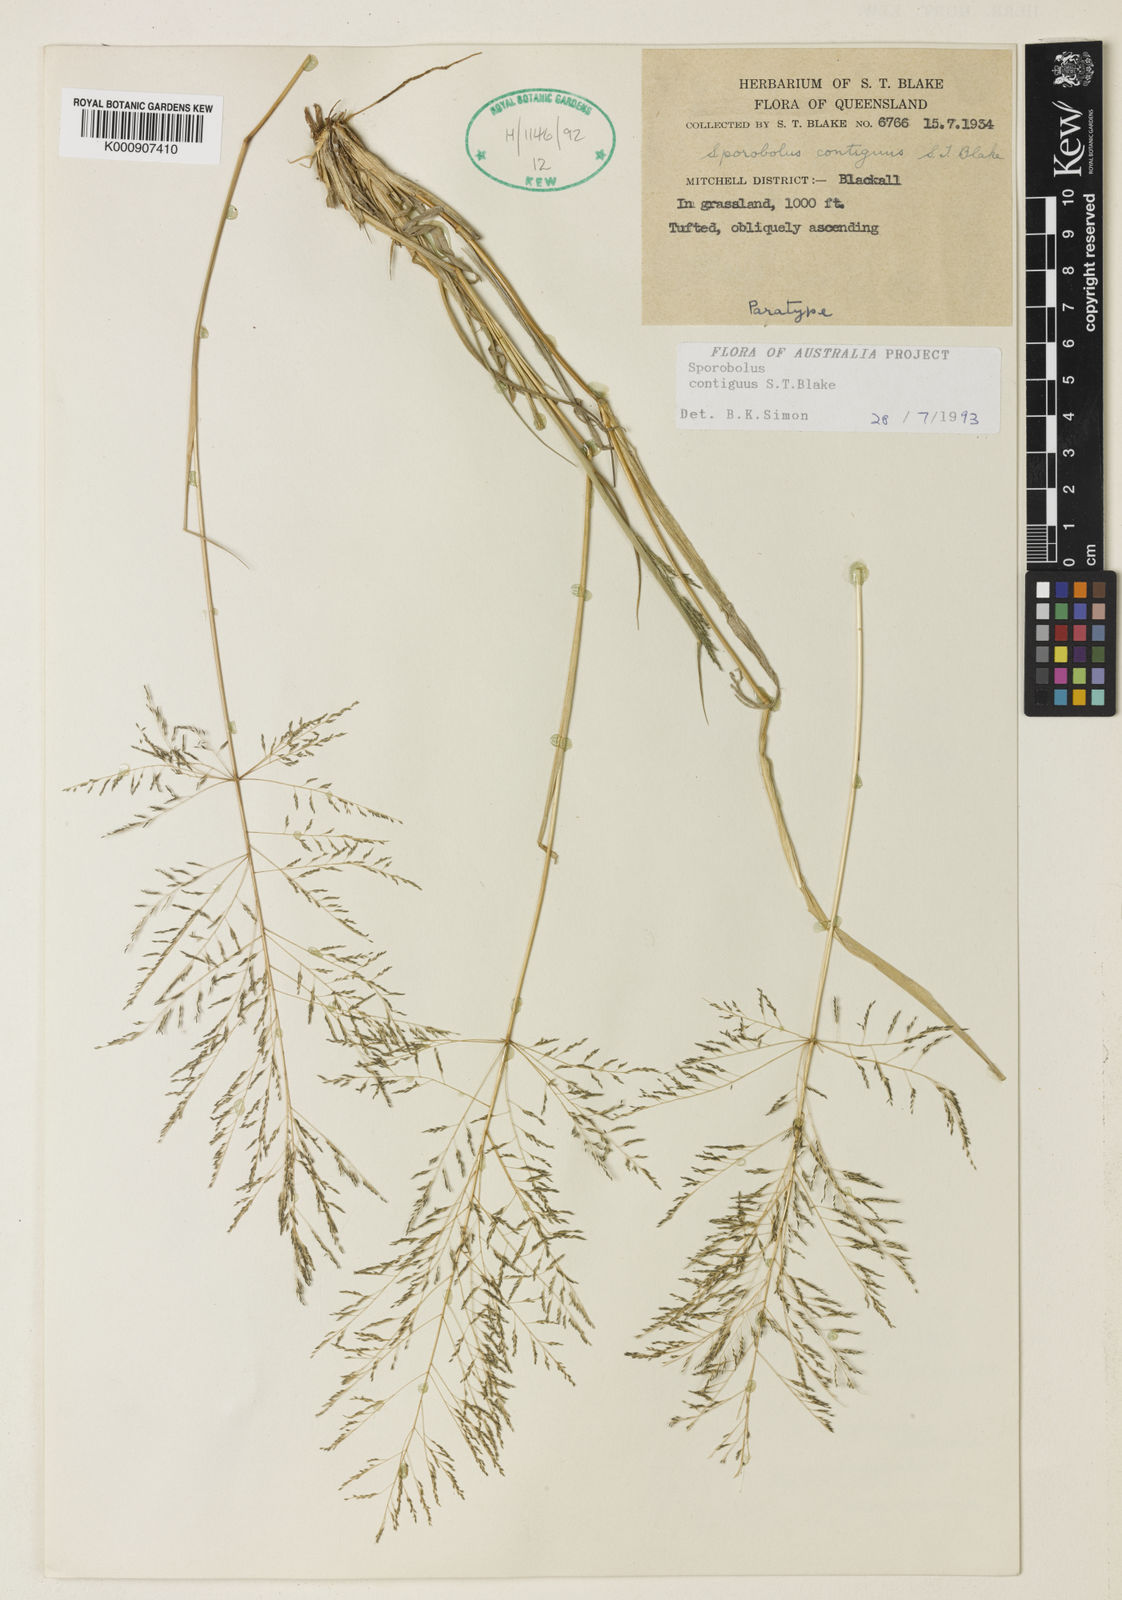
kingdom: Plantae
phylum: Tracheophyta
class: Liliopsida
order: Poales
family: Poaceae
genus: Sporobolus
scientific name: Sporobolus contiguus
